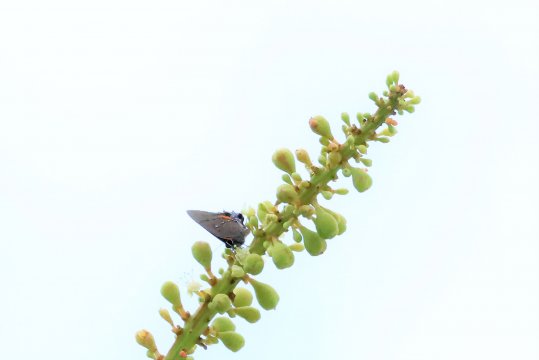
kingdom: Animalia
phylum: Arthropoda
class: Insecta
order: Lepidoptera
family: Lycaenidae
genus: Thecla
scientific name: Thecla angelia
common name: Fulvous Hairstreak
